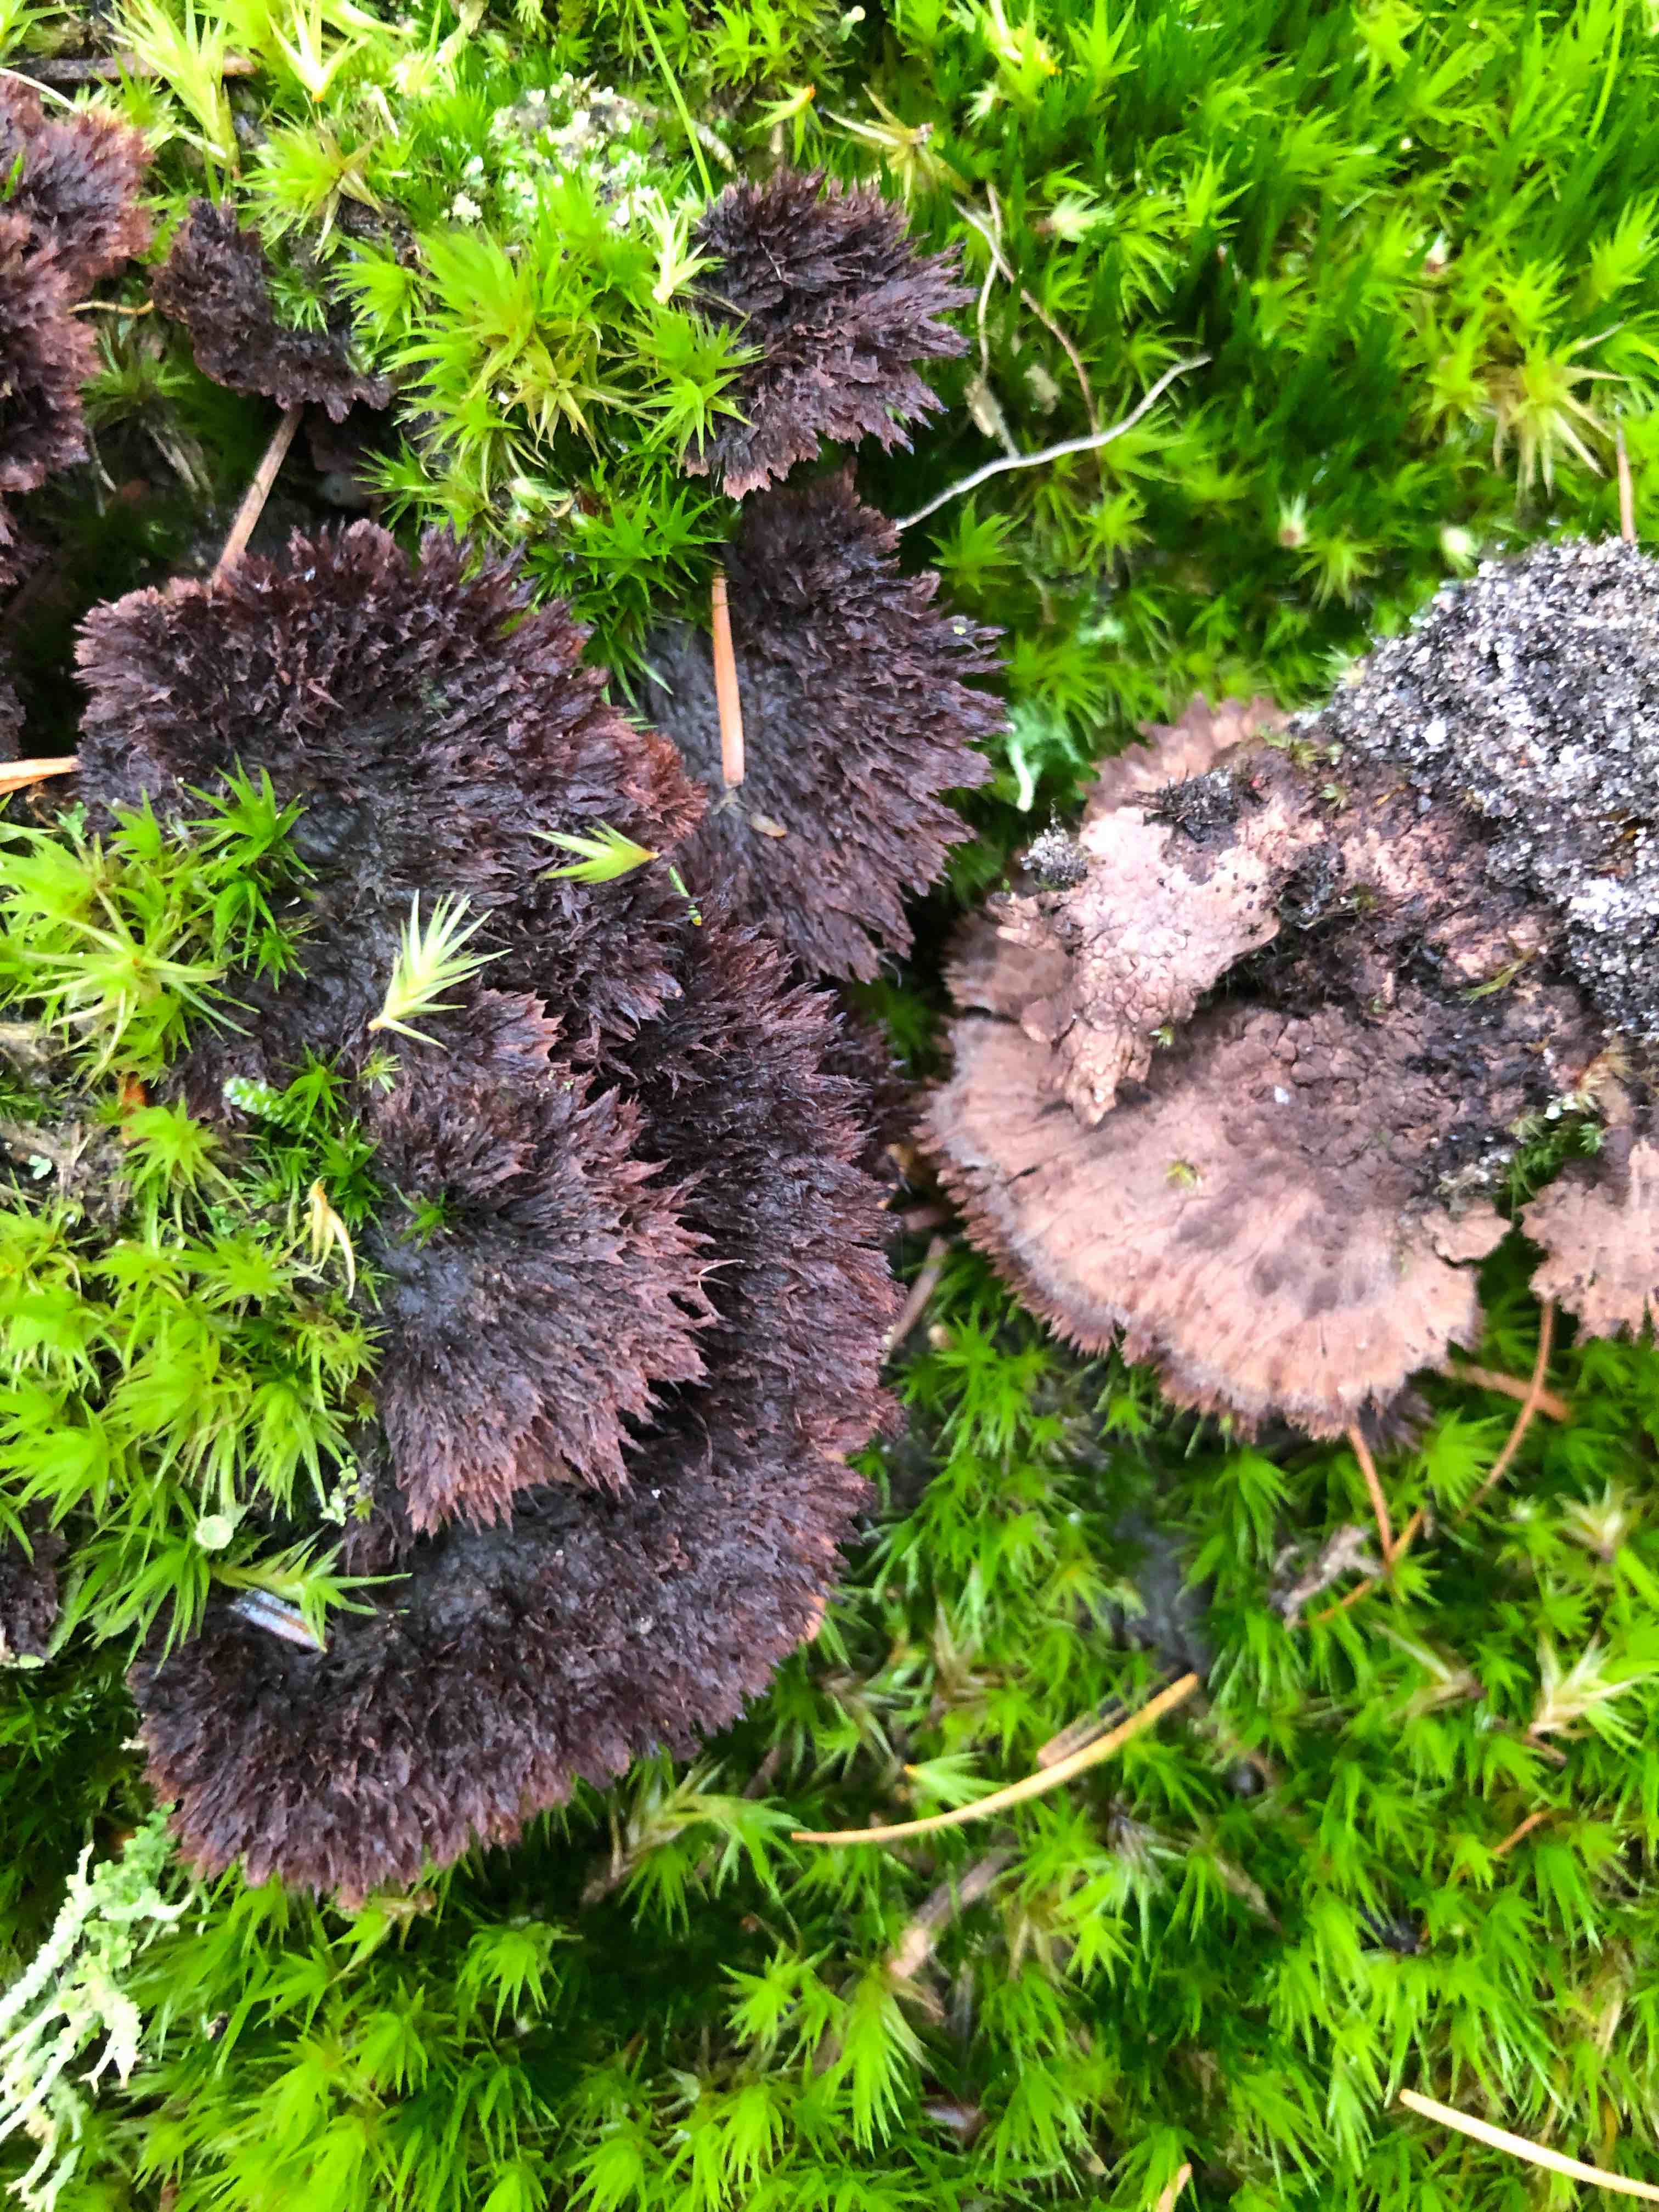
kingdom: Fungi
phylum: Basidiomycota
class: Agaricomycetes
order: Thelephorales
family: Thelephoraceae
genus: Thelephora
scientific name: Thelephora terrestris
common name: fliget frynsesvamp
